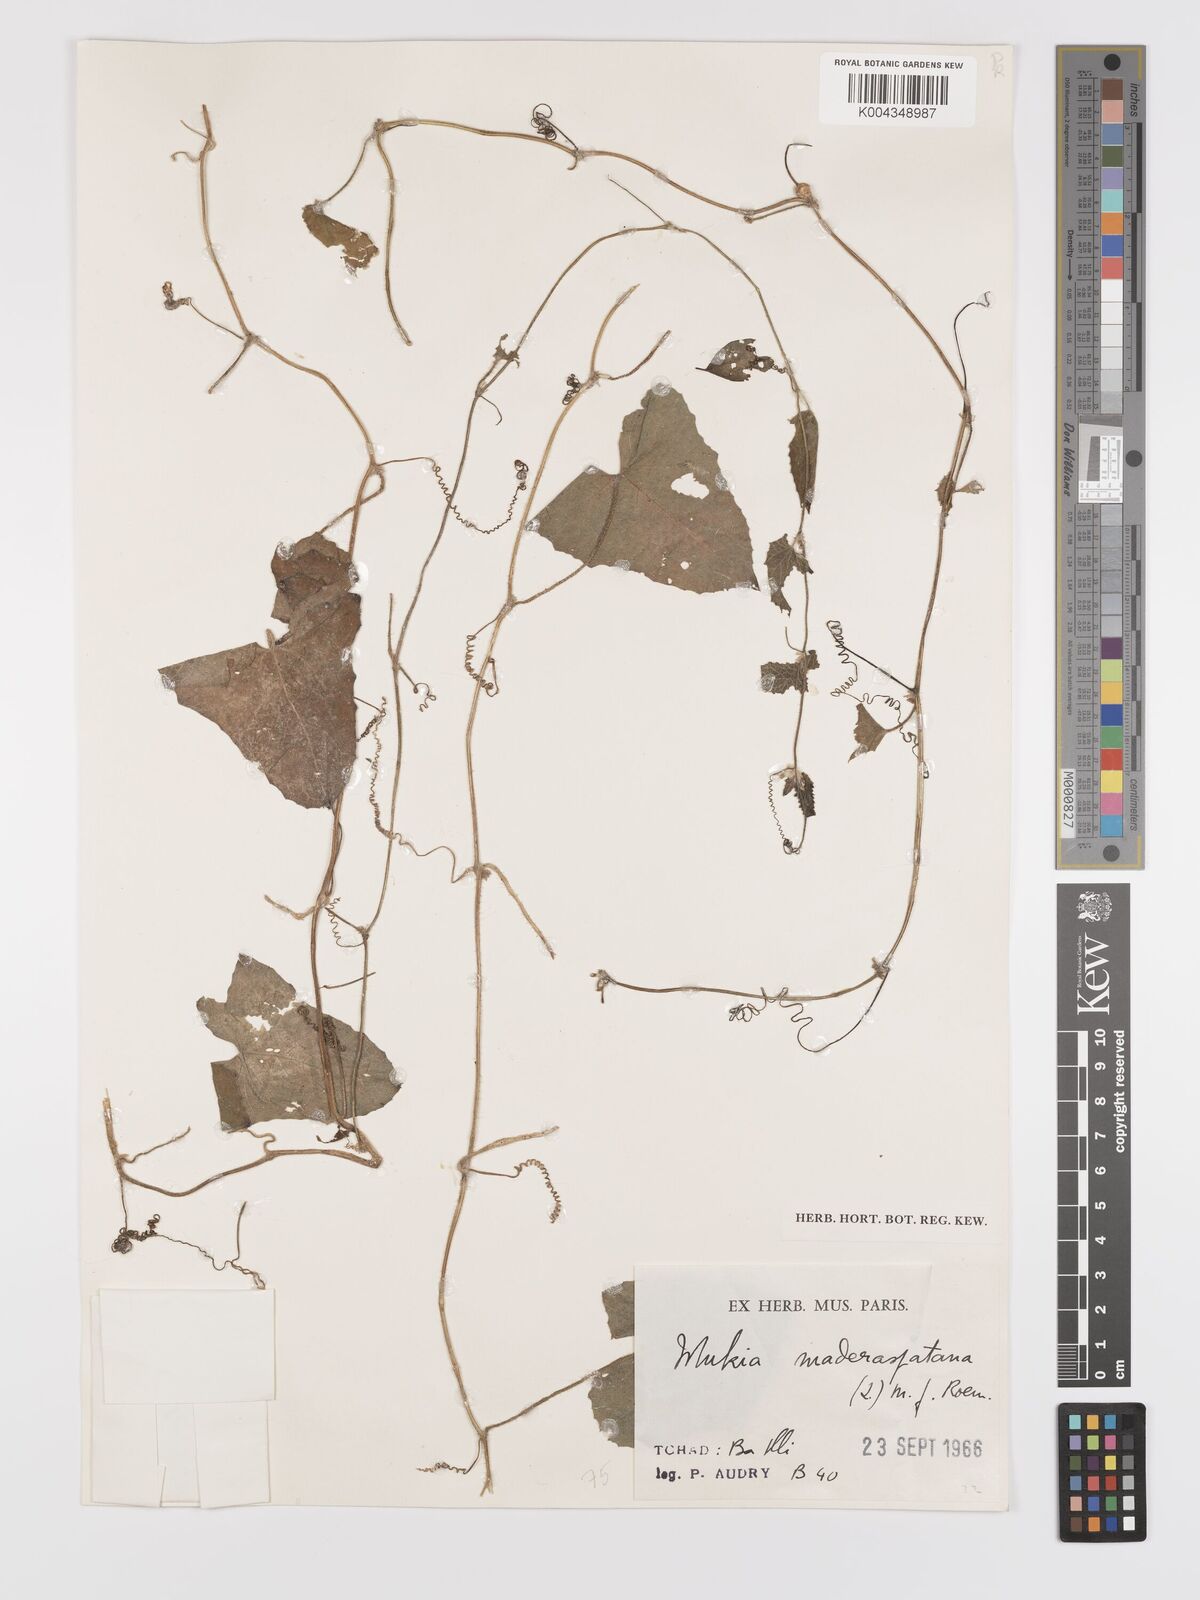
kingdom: Plantae
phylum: Tracheophyta
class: Magnoliopsida
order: Cucurbitales
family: Cucurbitaceae
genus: Cucumis
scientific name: Cucumis maderaspatanus
